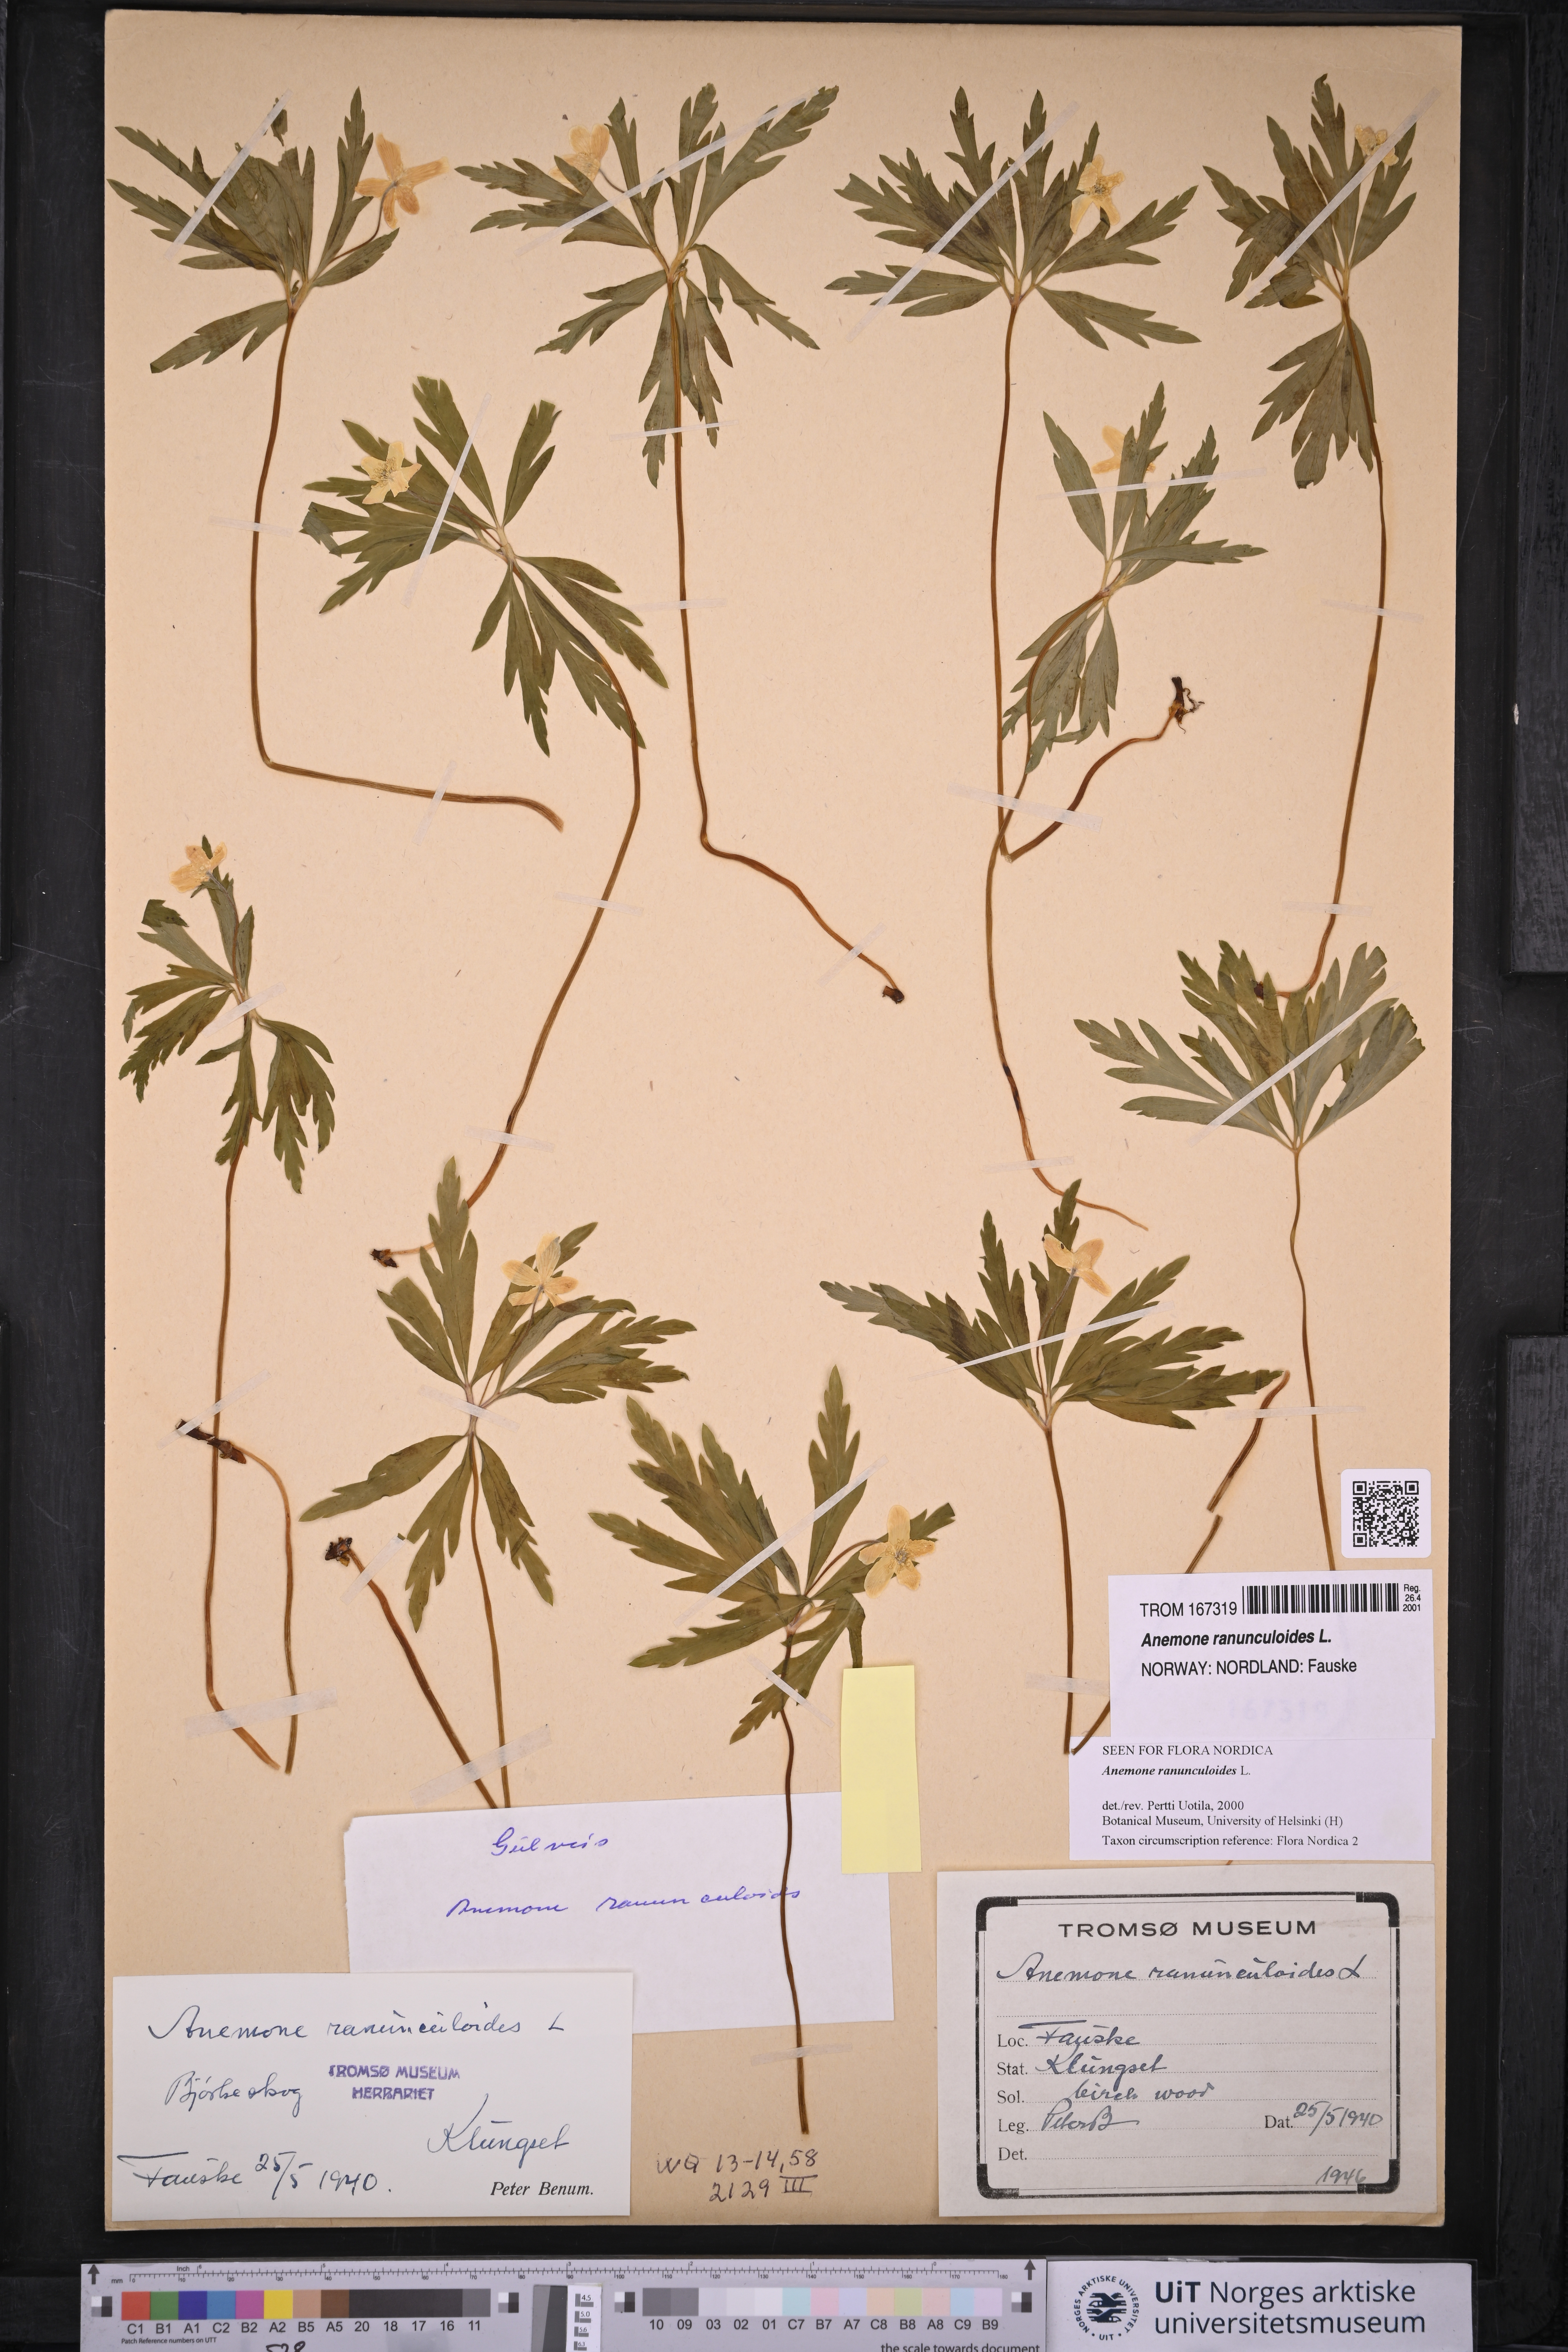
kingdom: Plantae
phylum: Tracheophyta
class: Magnoliopsida
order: Ranunculales
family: Ranunculaceae
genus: Anemone
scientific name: Anemone ranunculoides
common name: Yellow anemone
